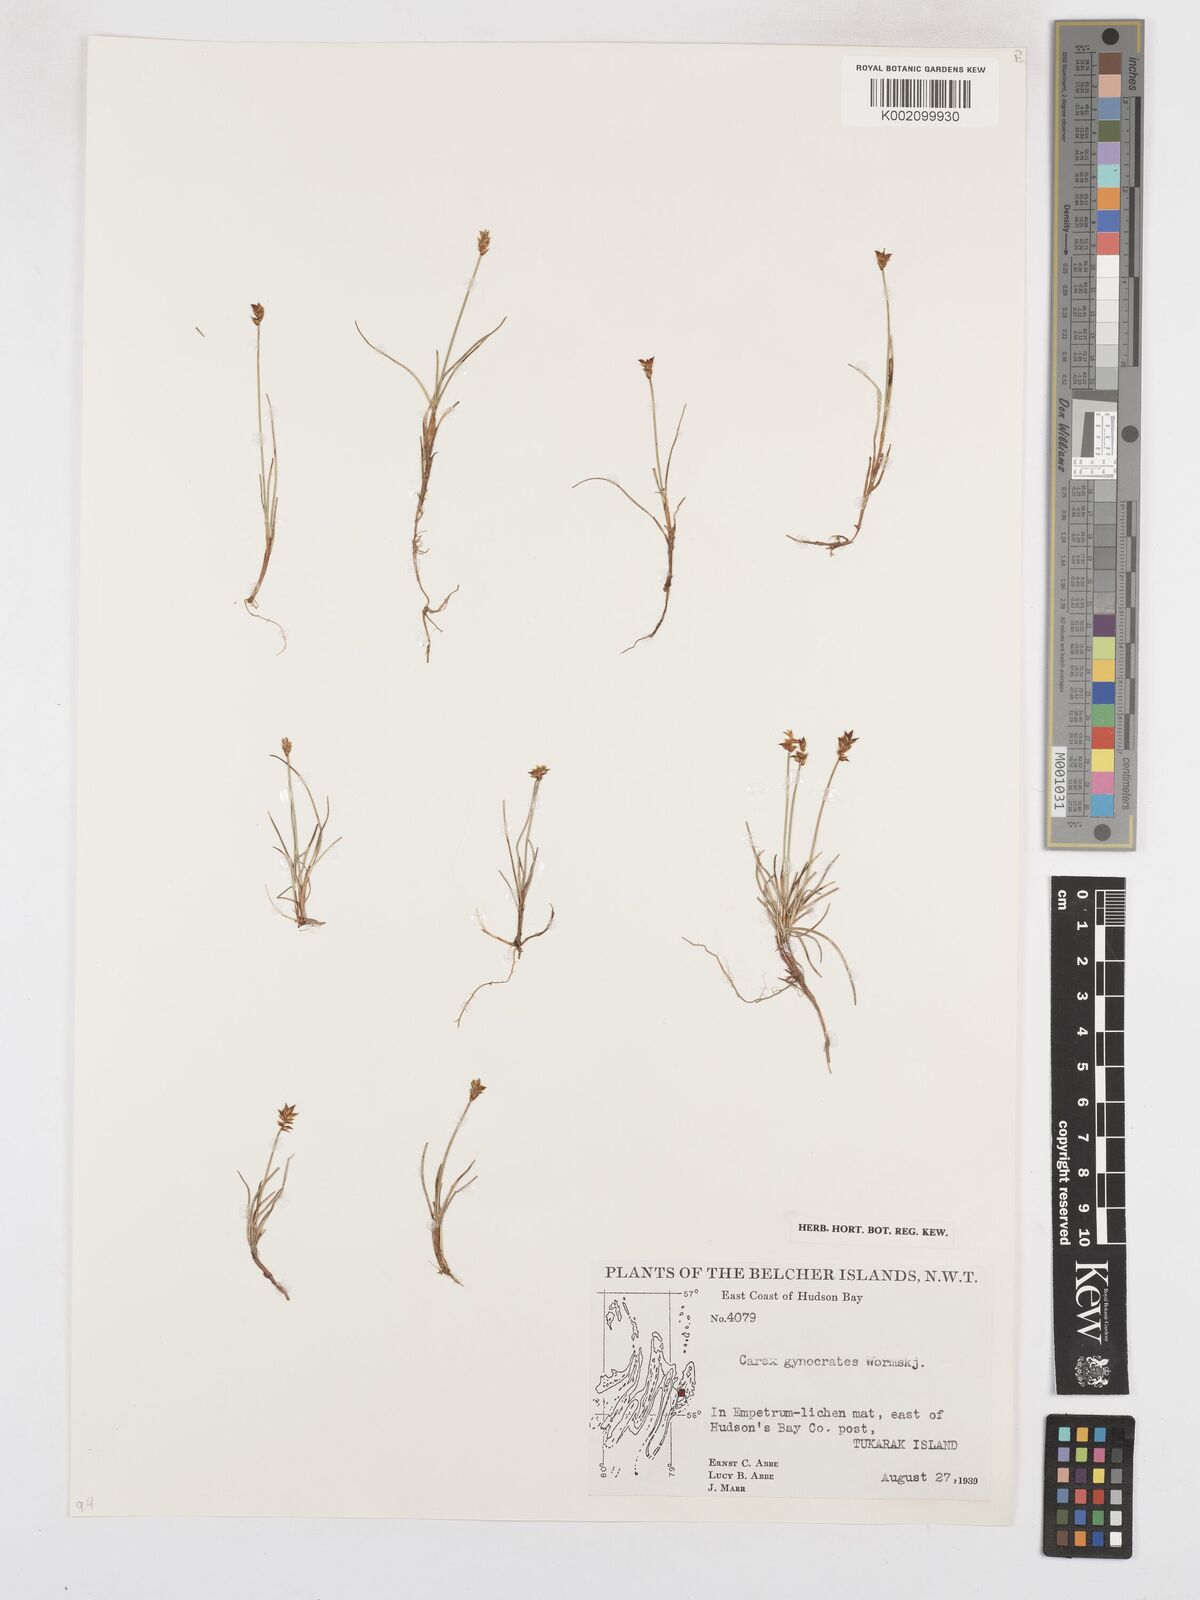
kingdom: Plantae
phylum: Tracheophyta
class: Liliopsida
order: Poales
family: Cyperaceae
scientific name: Cyperaceae
